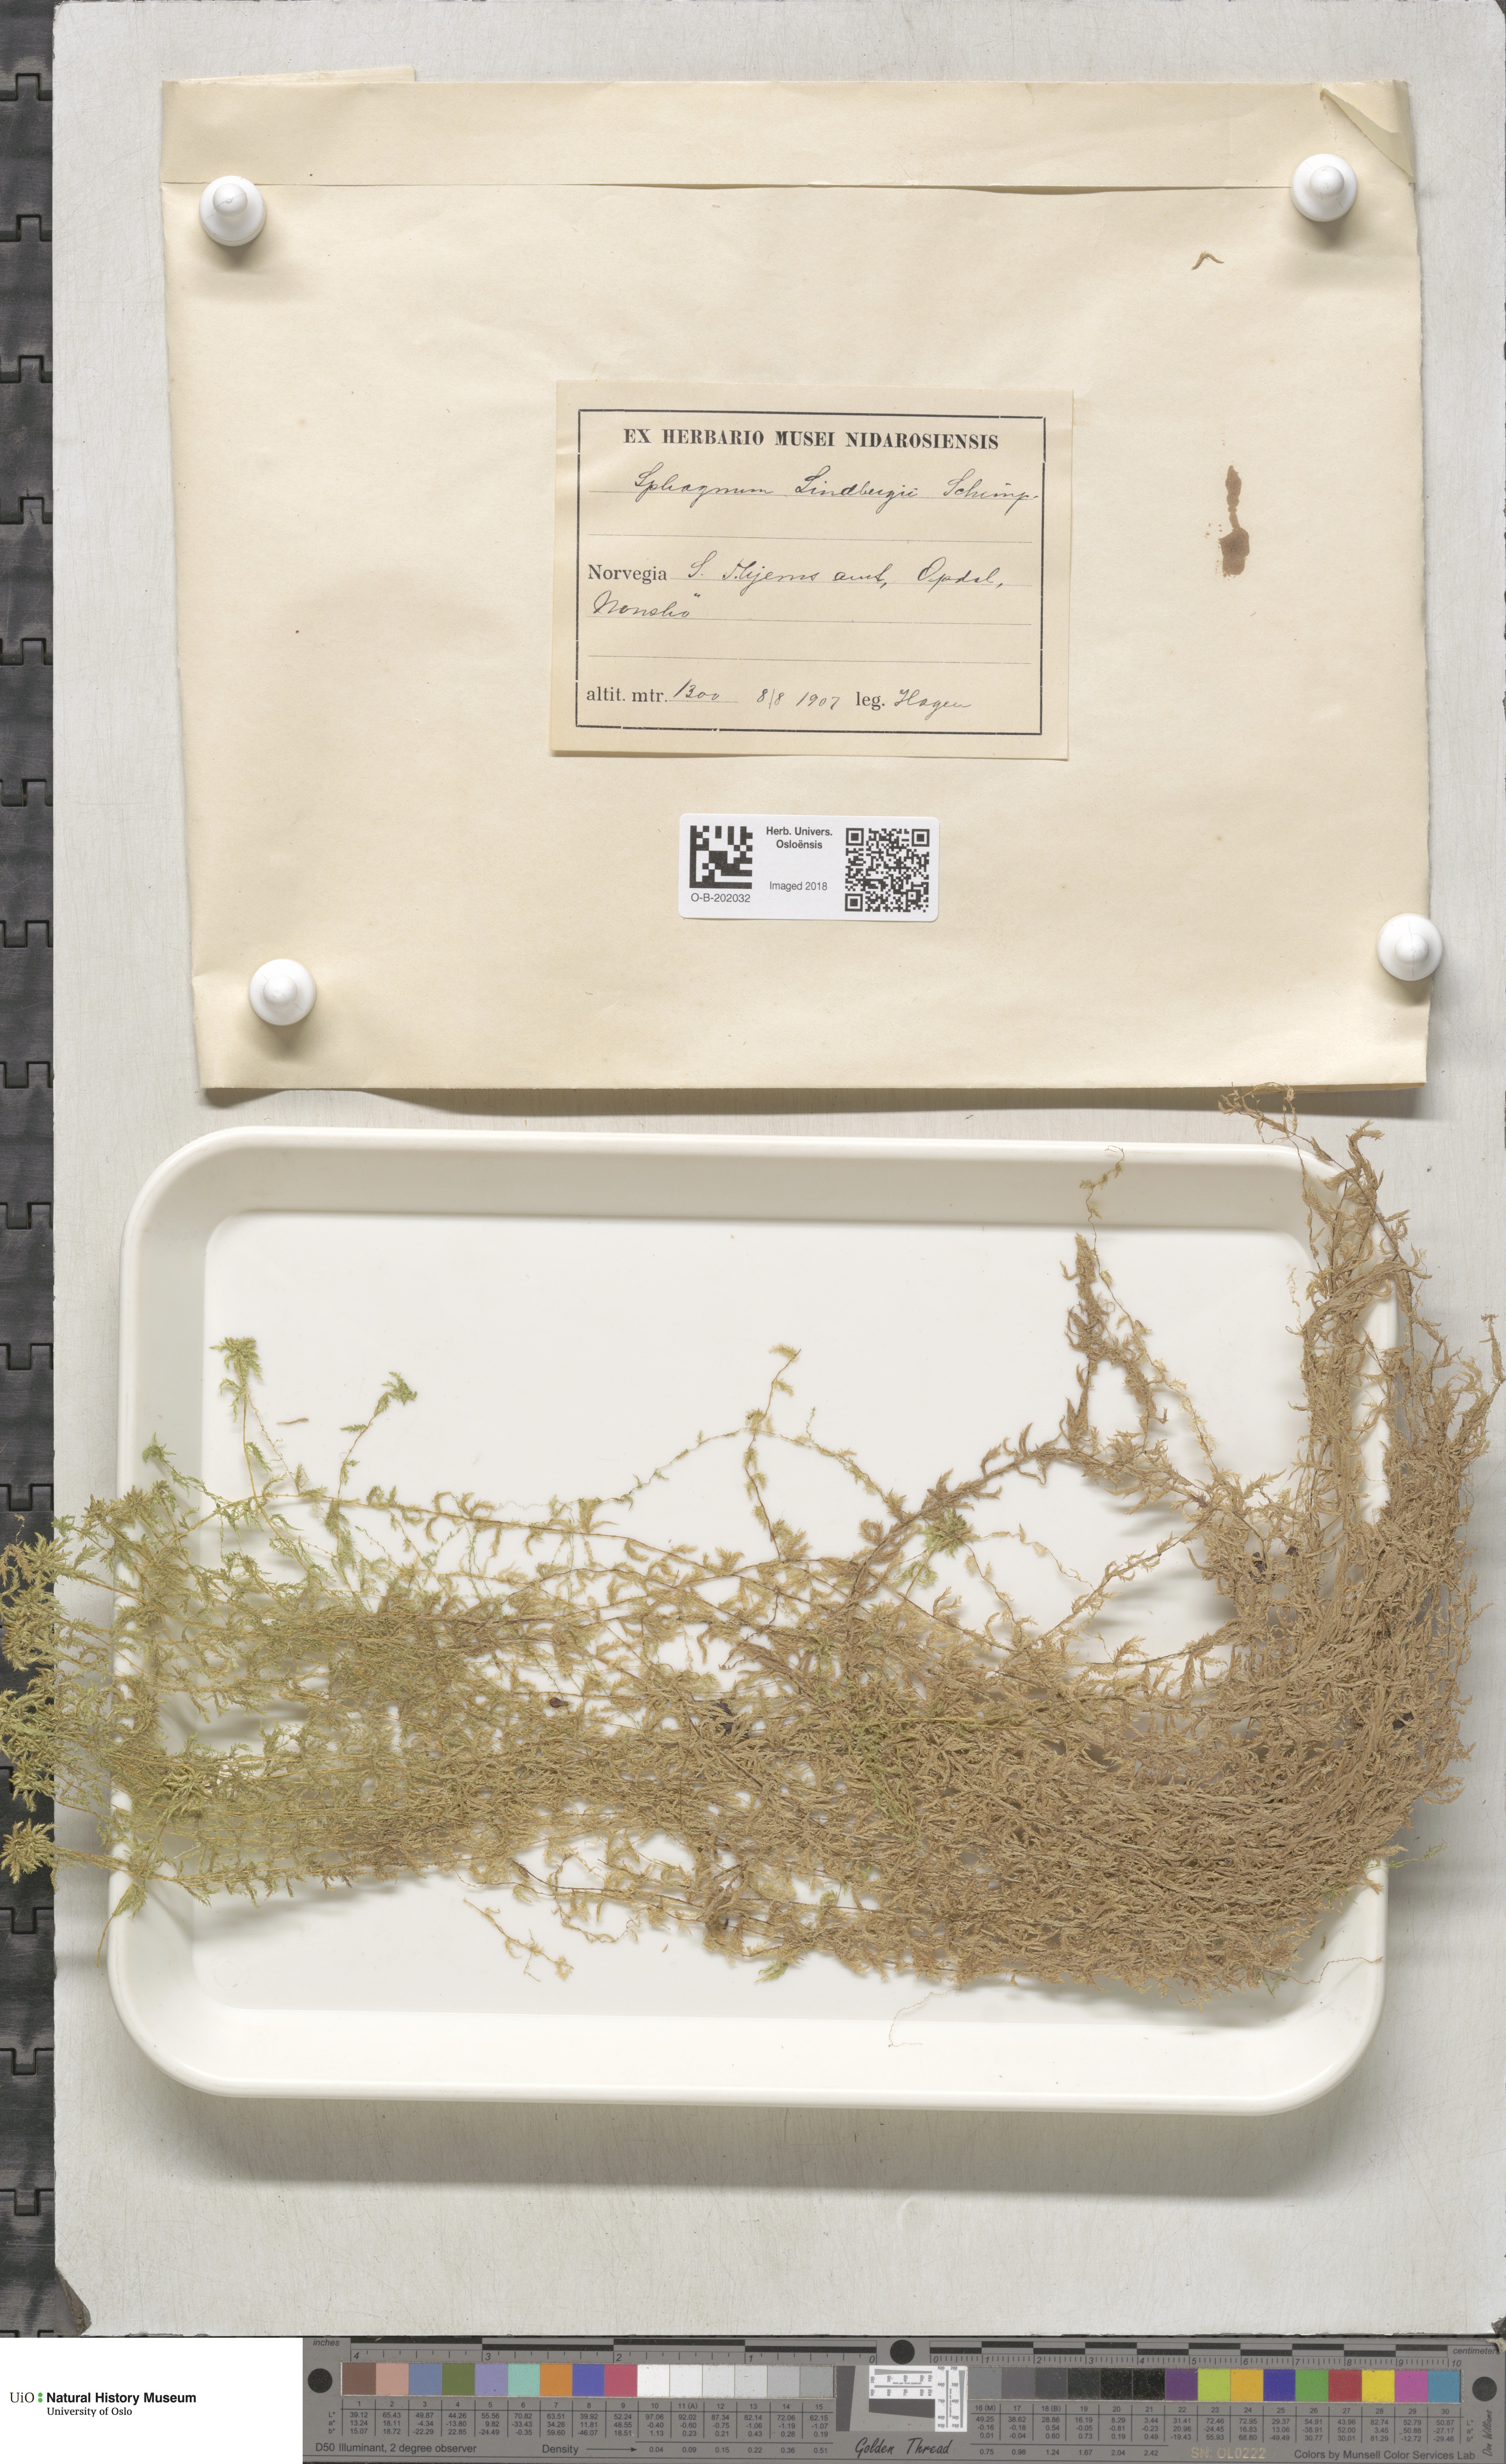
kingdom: Plantae
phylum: Bryophyta
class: Sphagnopsida
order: Sphagnales
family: Sphagnaceae
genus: Sphagnum
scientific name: Sphagnum lindbergii
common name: Lindberg's peat moss
